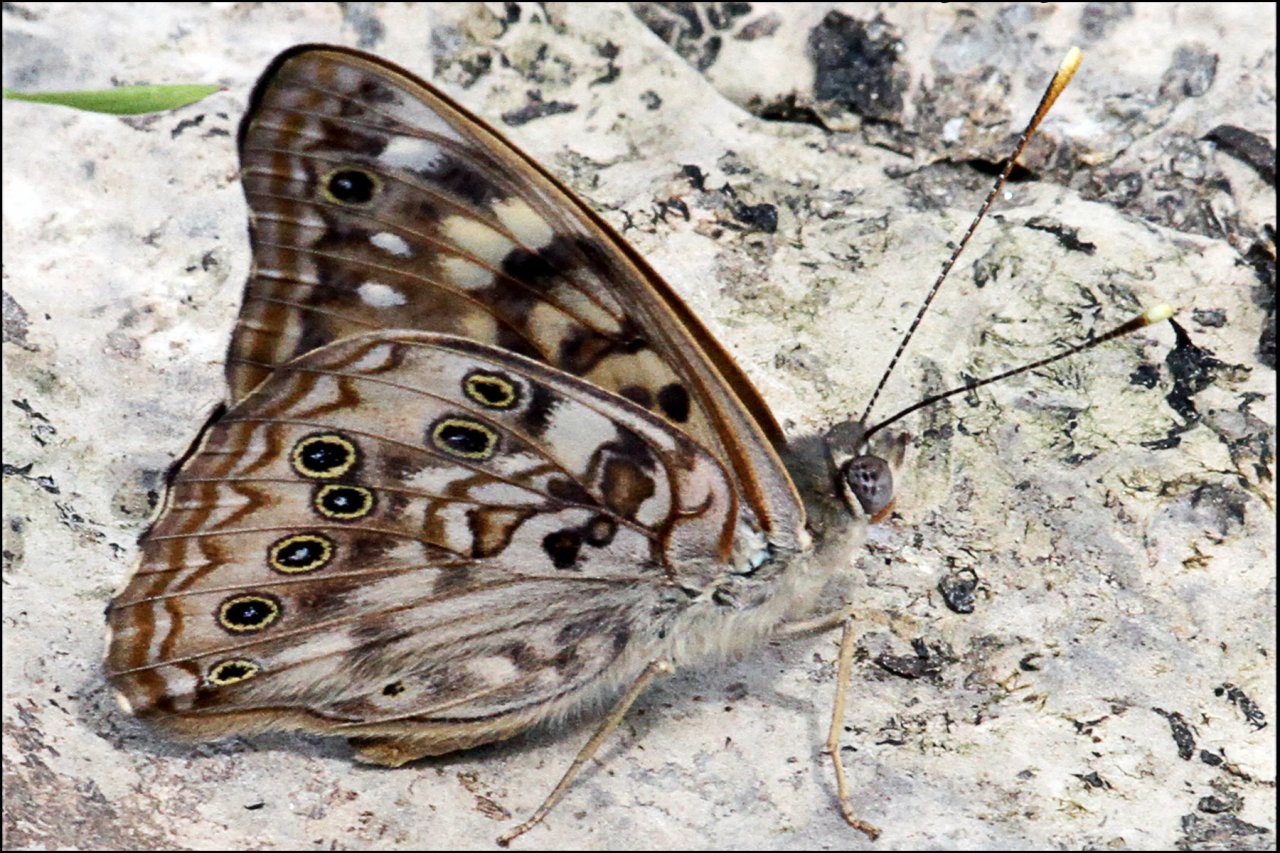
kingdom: Animalia
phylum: Arthropoda
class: Insecta
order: Lepidoptera
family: Nymphalidae
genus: Asterocampa
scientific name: Asterocampa celtis
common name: Hackberry Emperor
